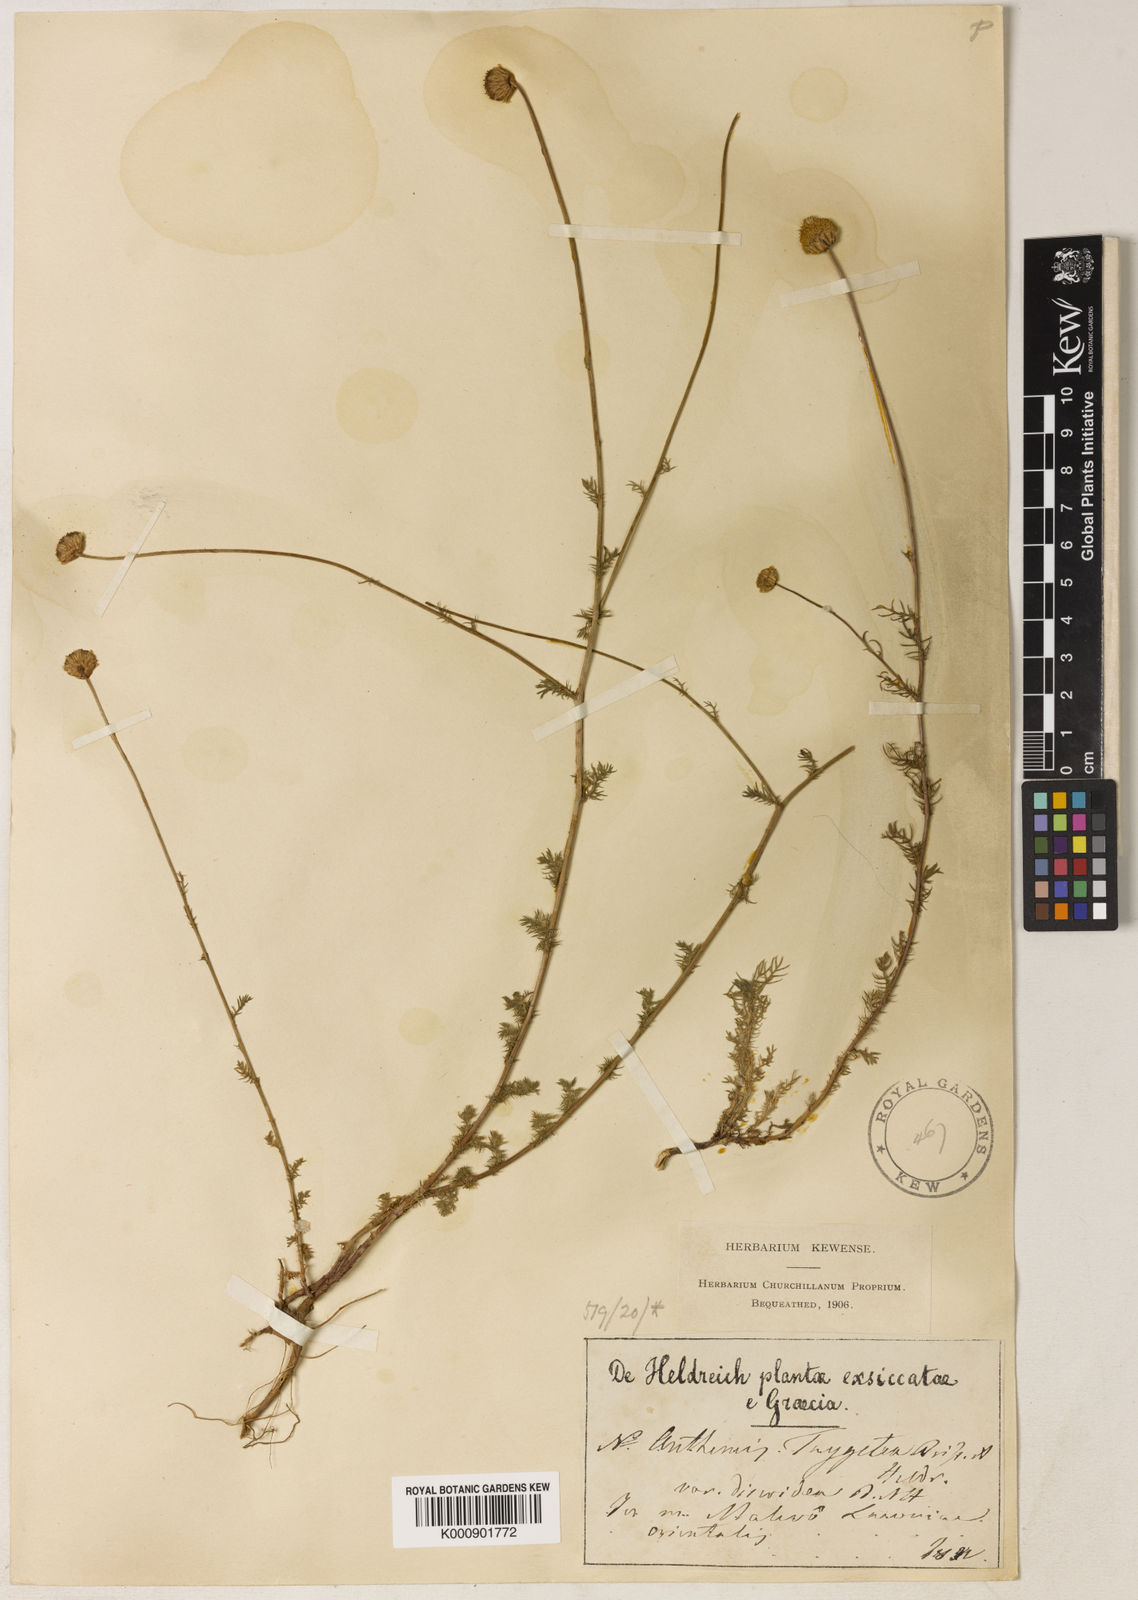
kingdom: Plantae
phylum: Tracheophyta
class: Magnoliopsida
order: Asterales
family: Asteraceae
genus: Anthemis
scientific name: Anthemis orientalis
